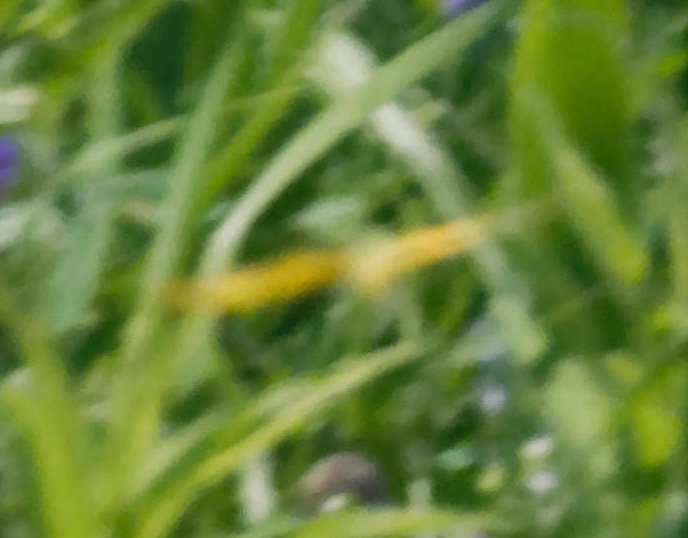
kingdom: Animalia
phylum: Arthropoda
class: Insecta
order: Lepidoptera
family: Pieridae
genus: Colias
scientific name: Colias eurytheme
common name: Orange Sulphur
